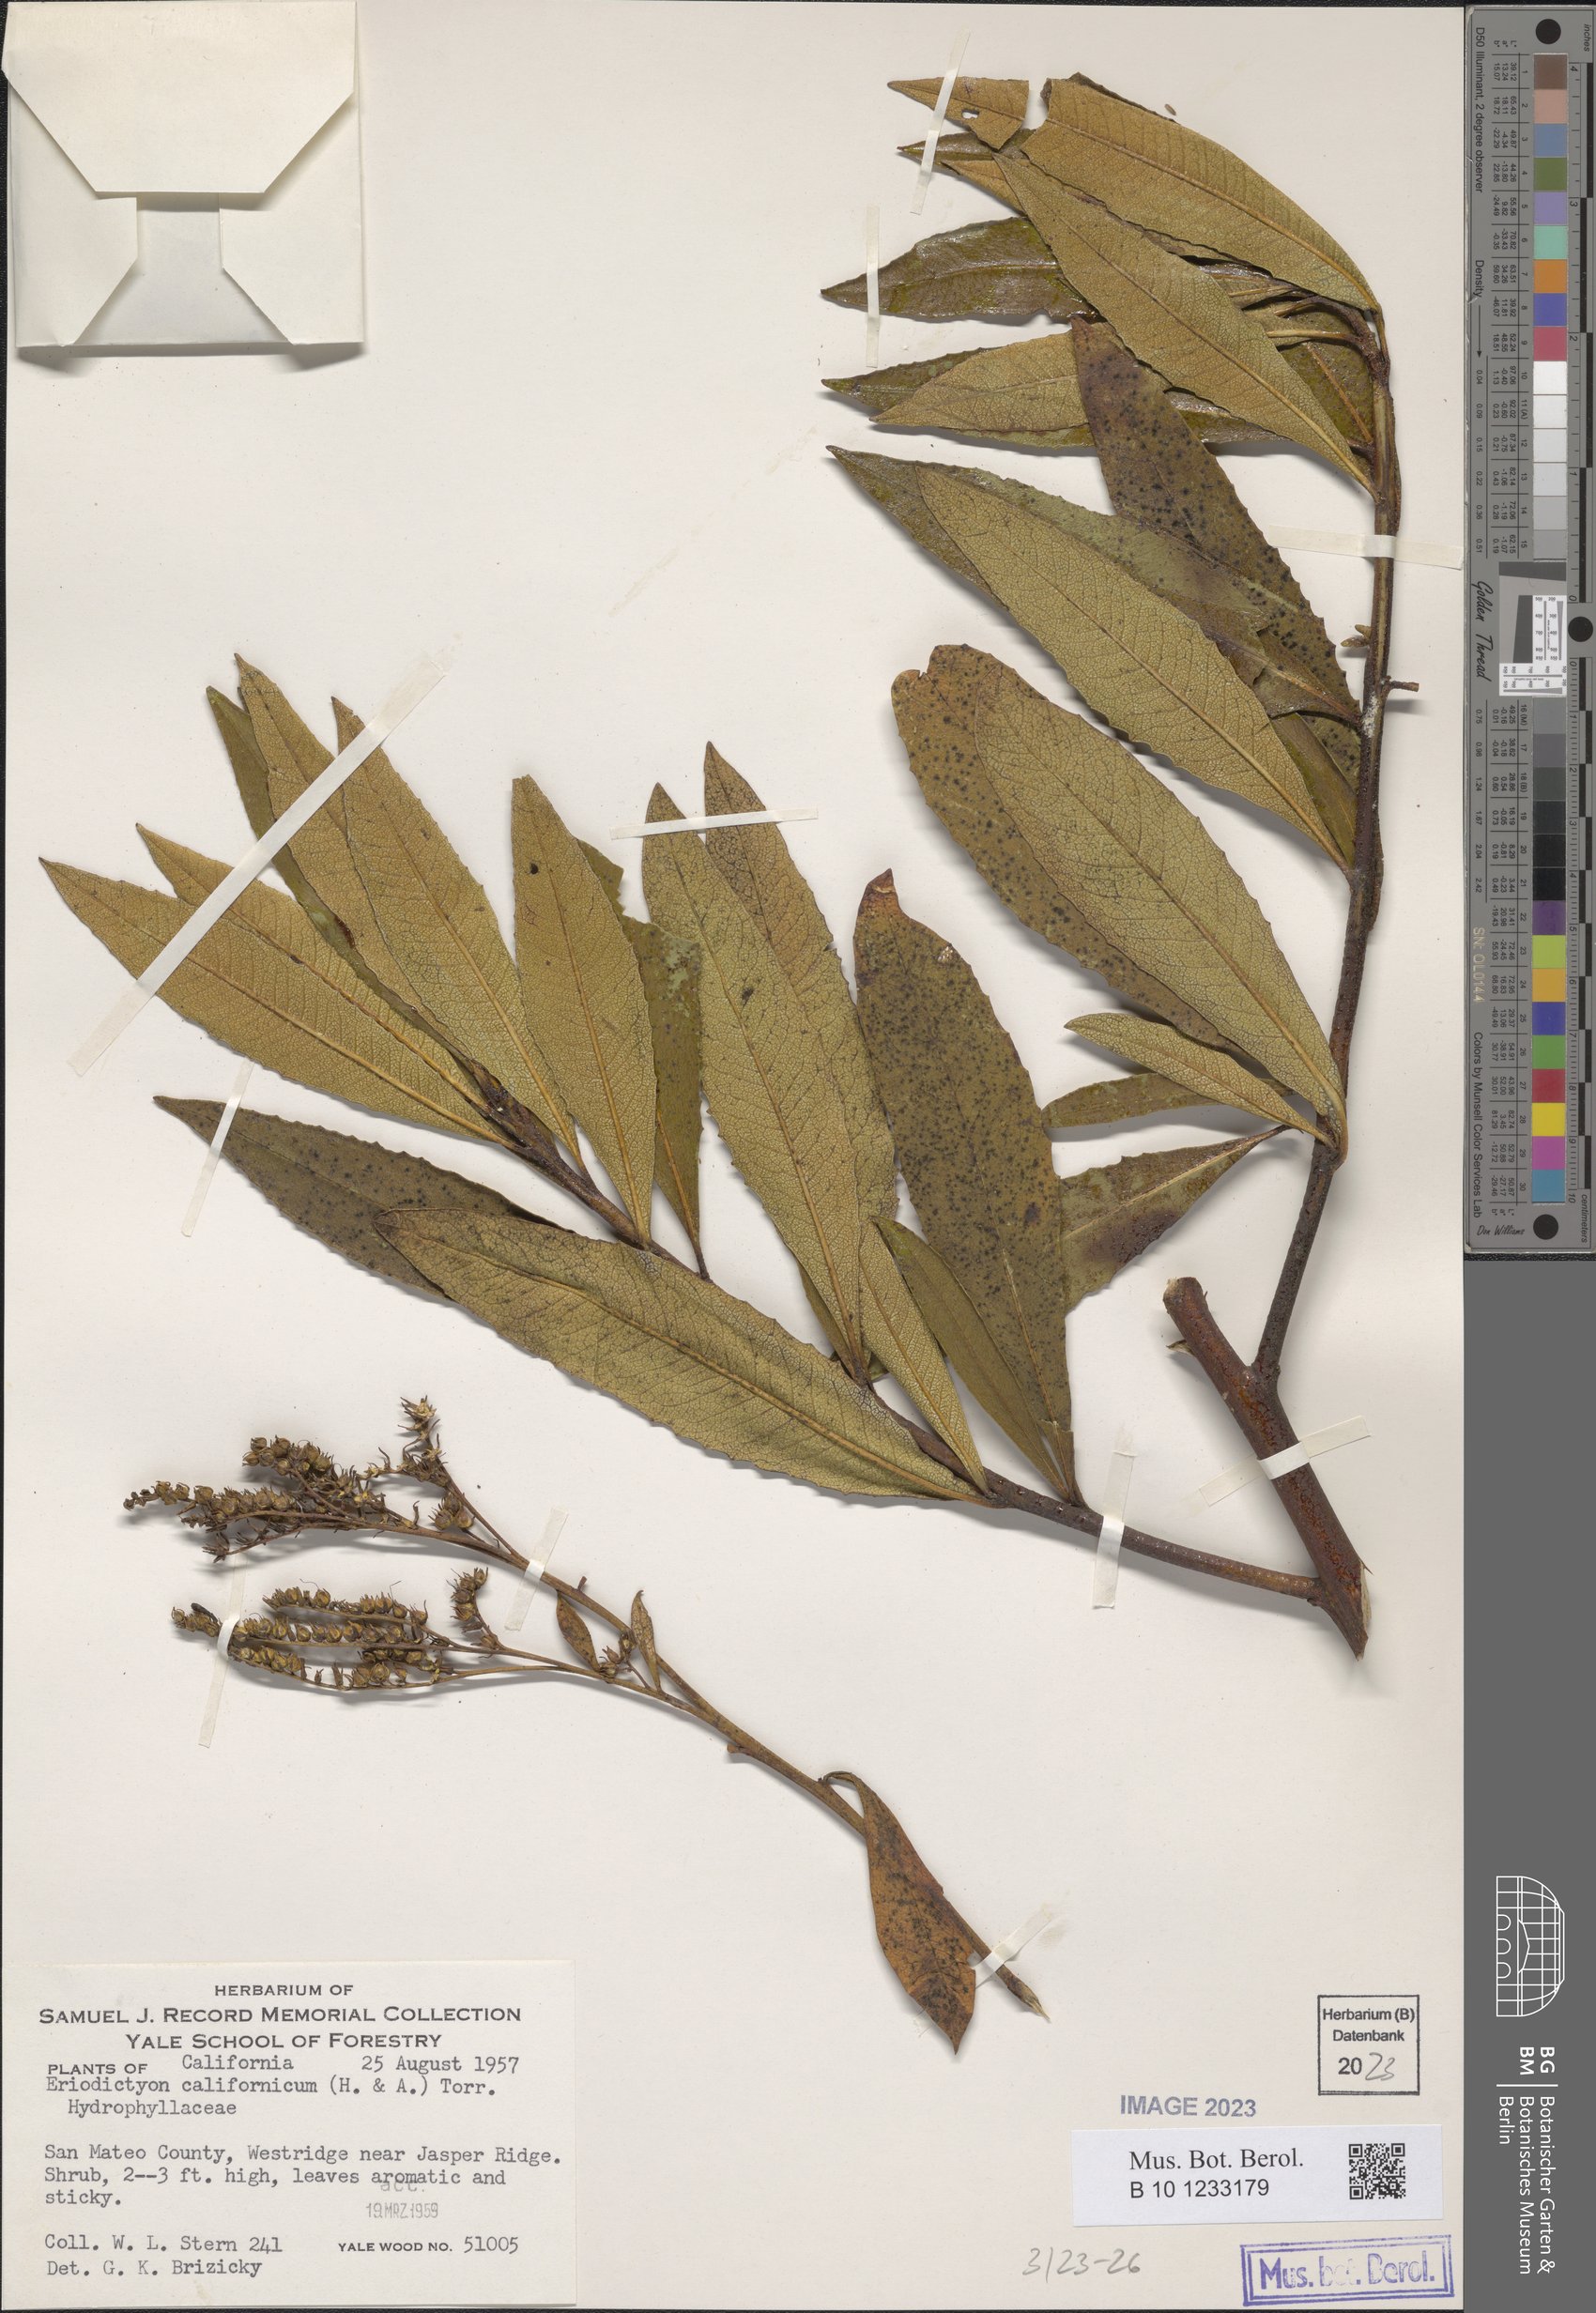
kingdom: Plantae
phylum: Tracheophyta
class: Magnoliopsida
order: Boraginales
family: Namaceae
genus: Eriodictyon
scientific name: Eriodictyon crassifolium
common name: Thick-leaf yerba-santa
